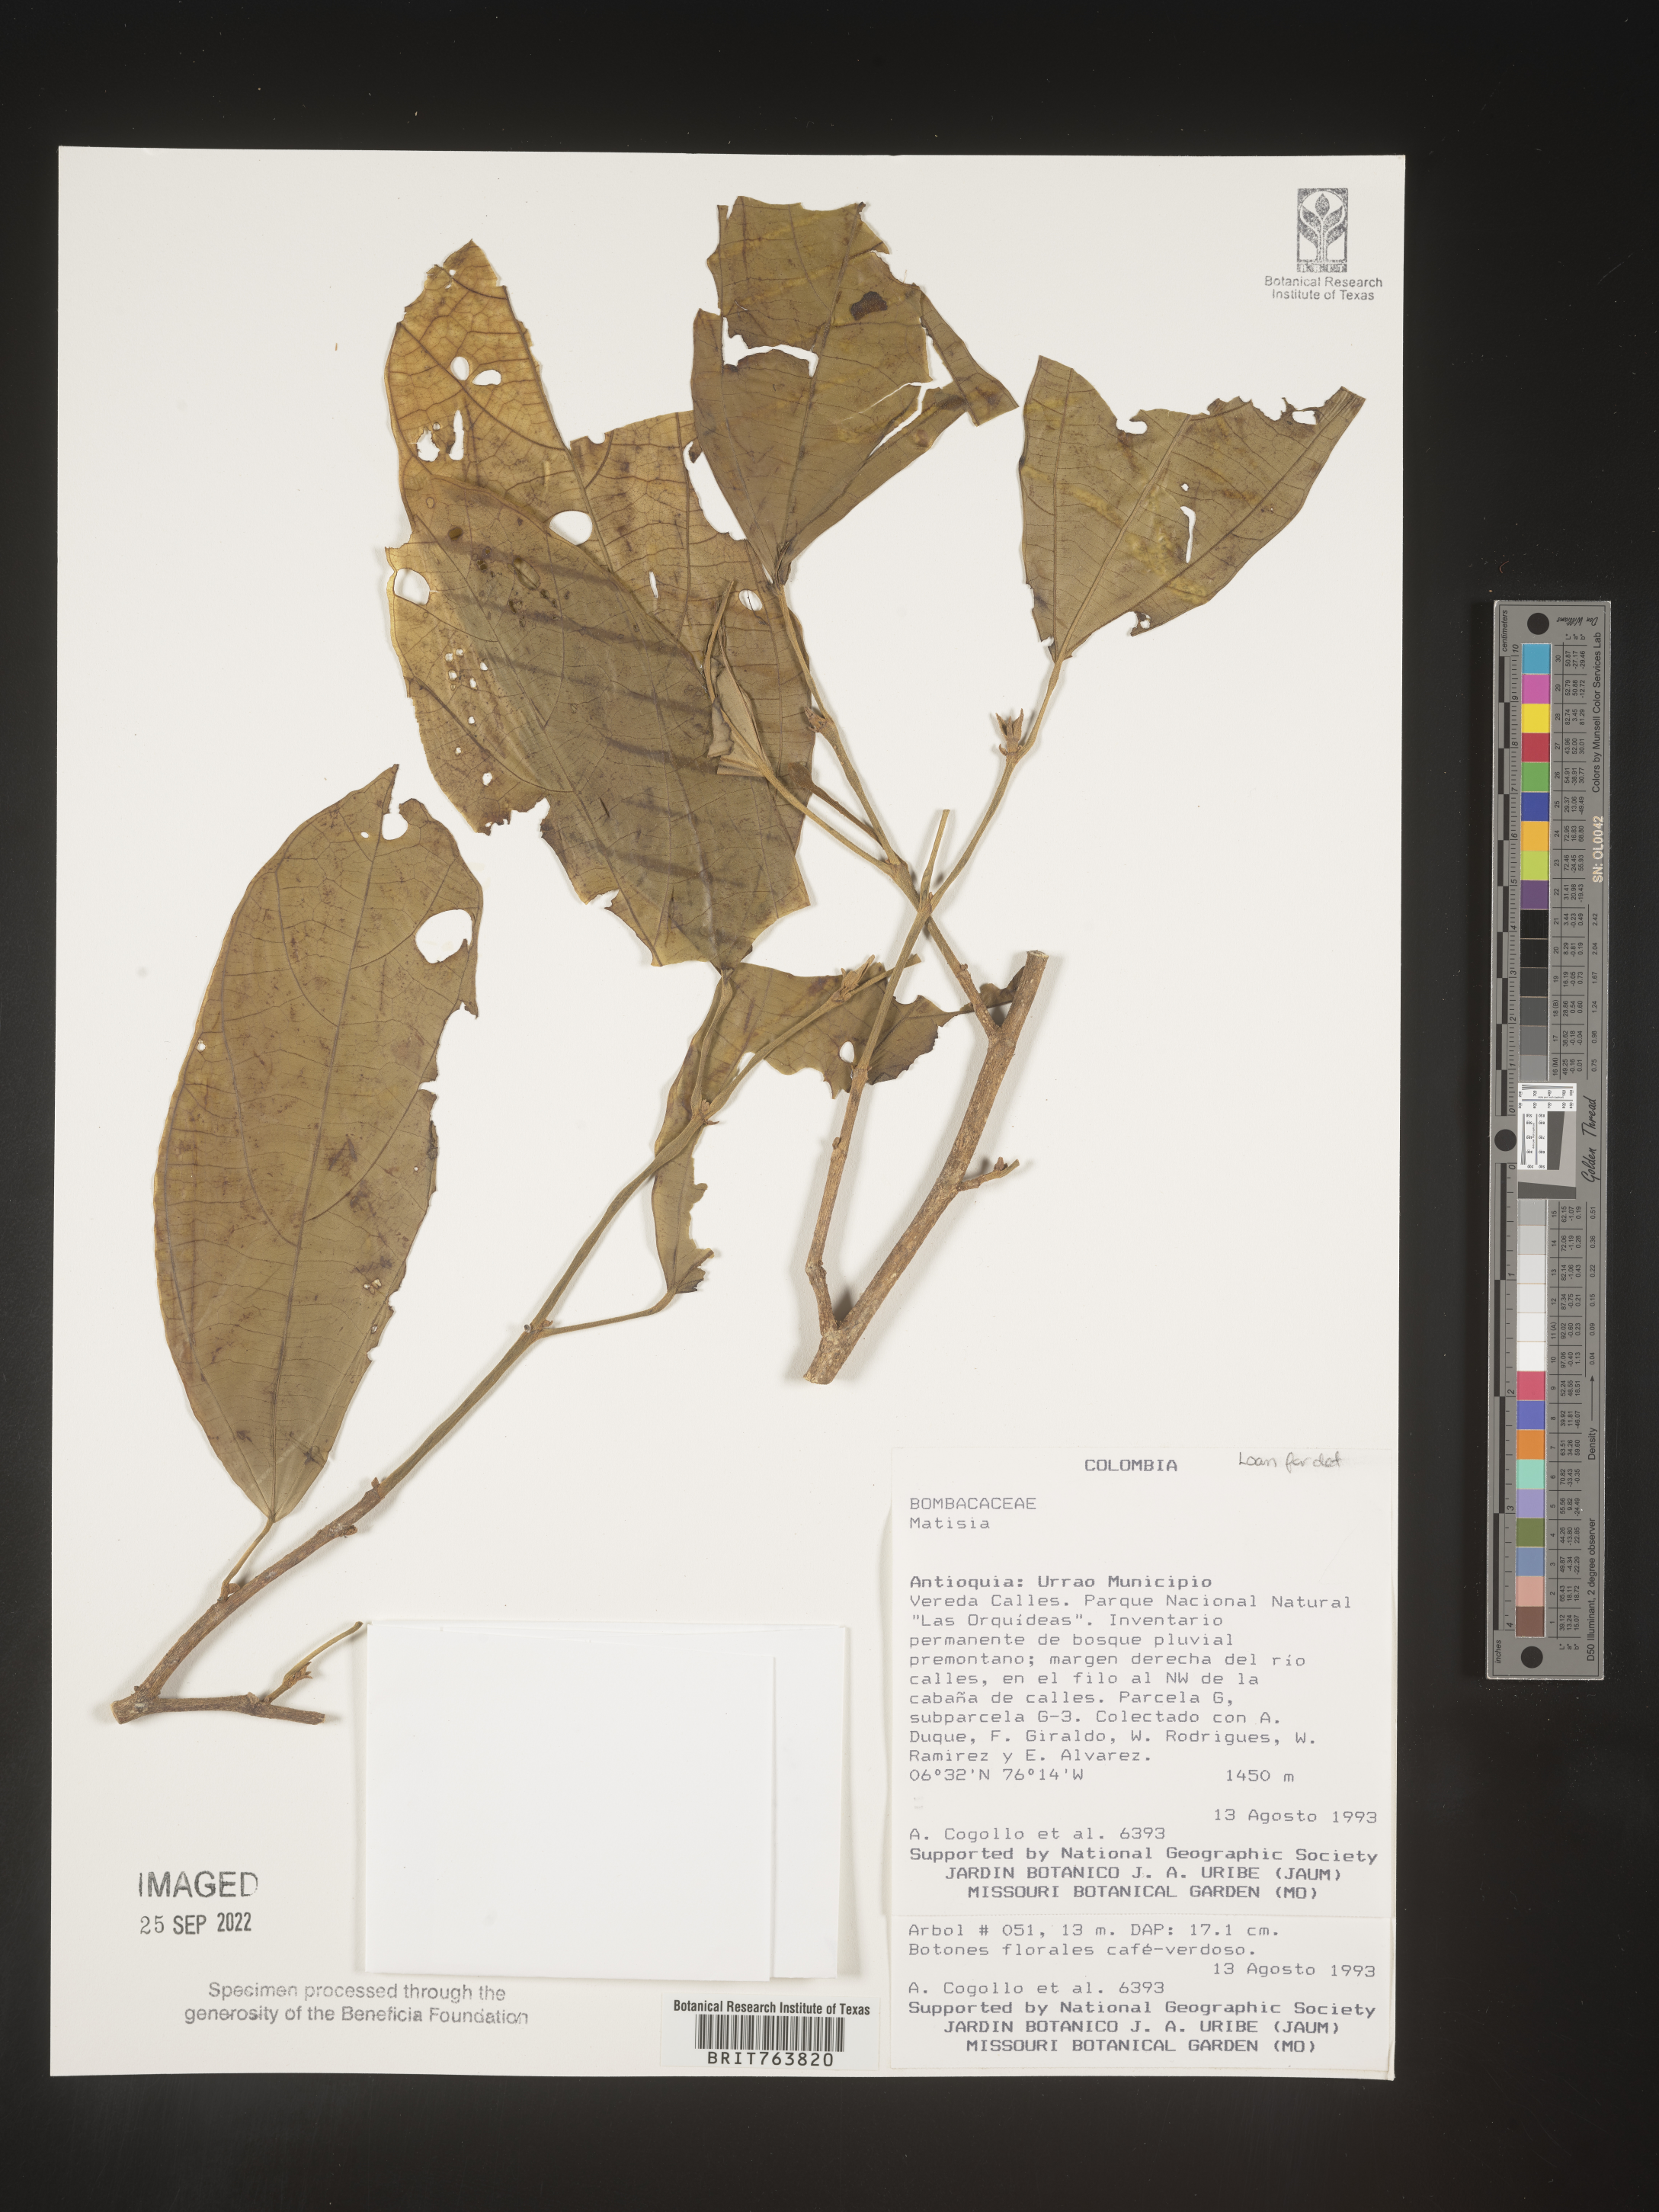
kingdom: Plantae
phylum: Tracheophyta
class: Magnoliopsida
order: Malvales
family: Malvaceae
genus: Matisia
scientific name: Matisia
